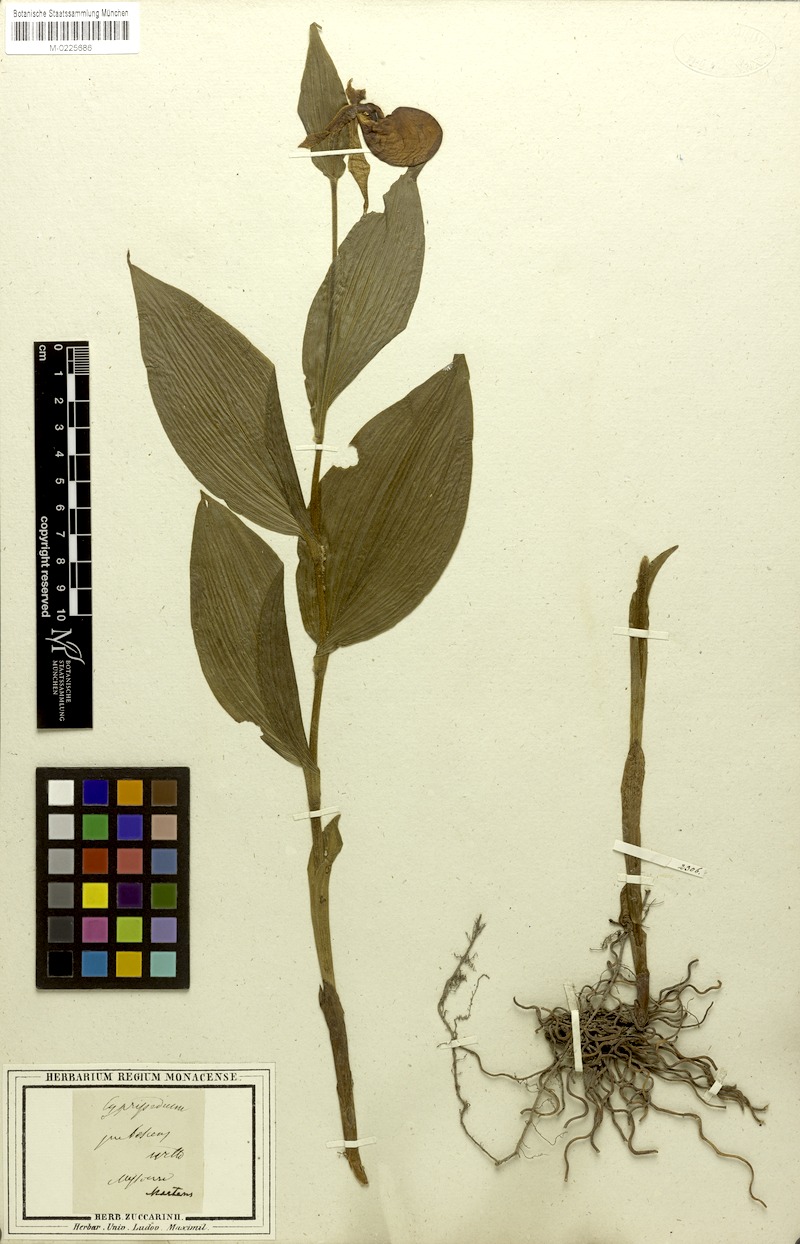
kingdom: Plantae
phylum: Tracheophyta
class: Liliopsida
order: Asparagales
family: Orchidaceae
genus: Cypripedium
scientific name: Cypripedium parviflorum
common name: American yellow lady's-slipper
